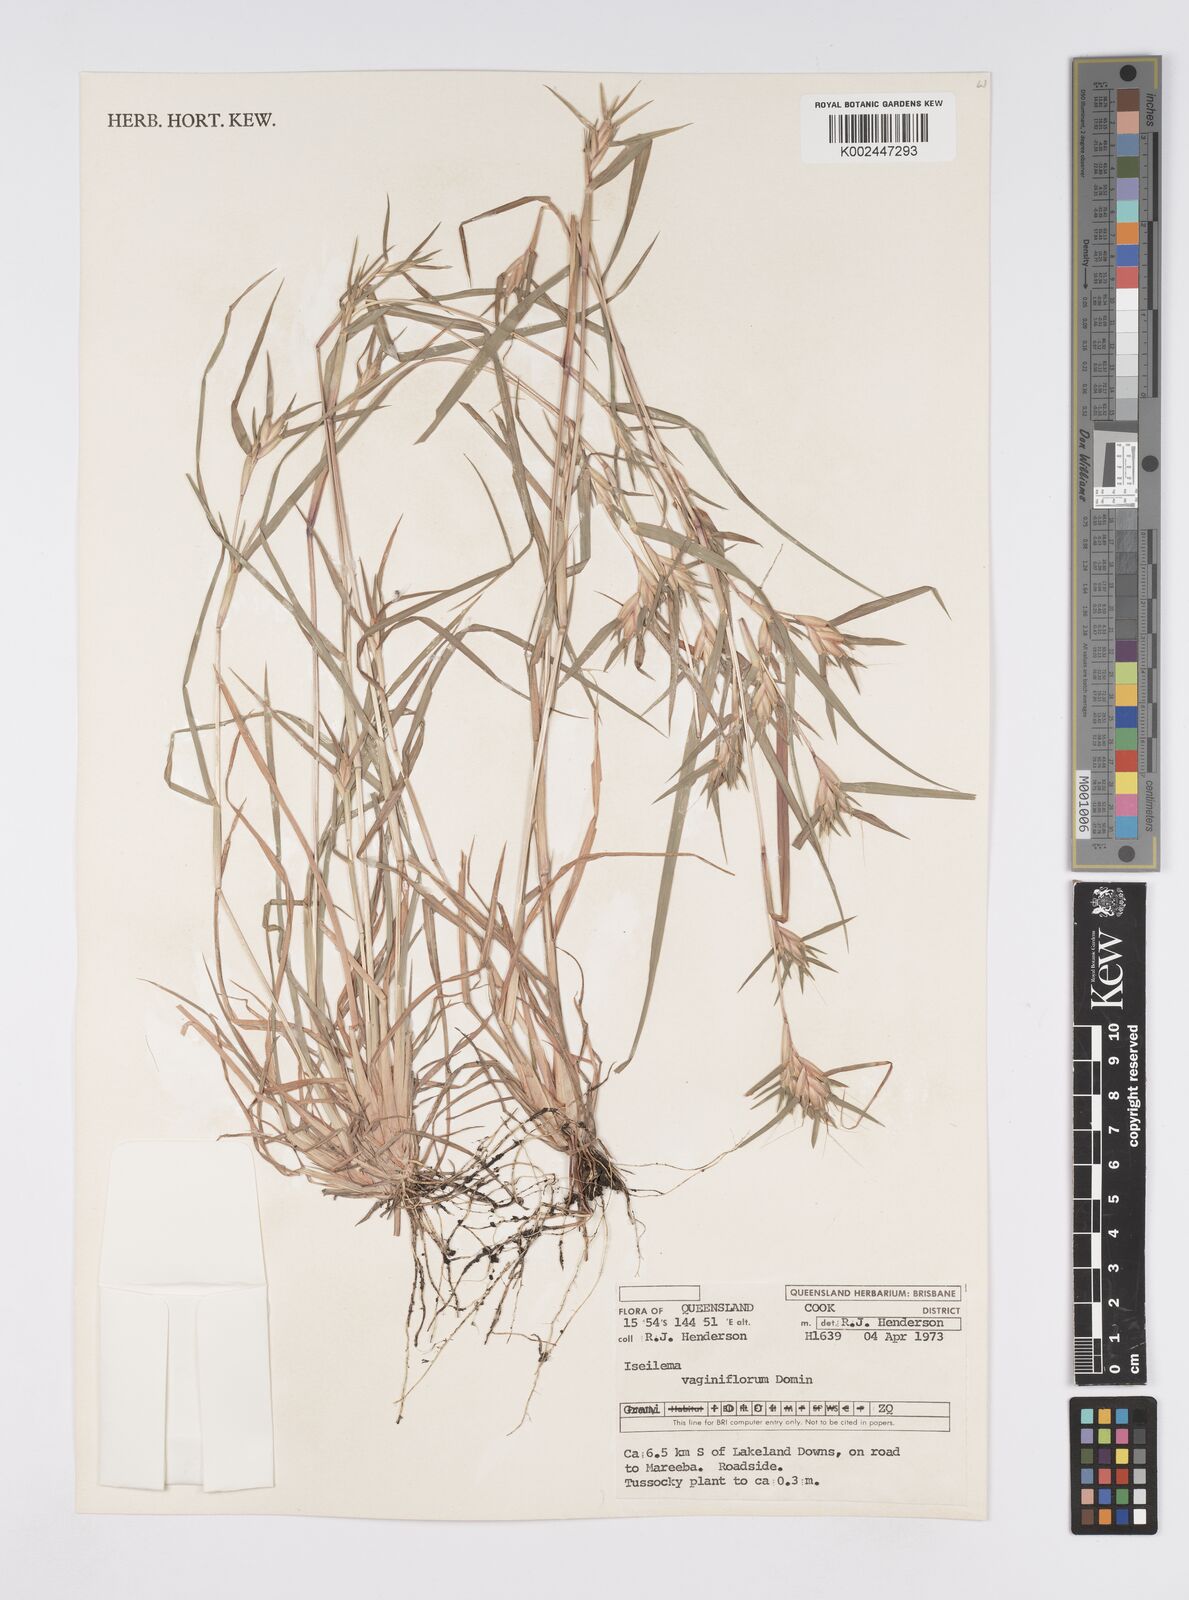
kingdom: Plantae
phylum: Tracheophyta
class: Liliopsida
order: Poales
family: Poaceae
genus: Iseilema
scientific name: Iseilema vaginiflorum
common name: Red flinders grass
